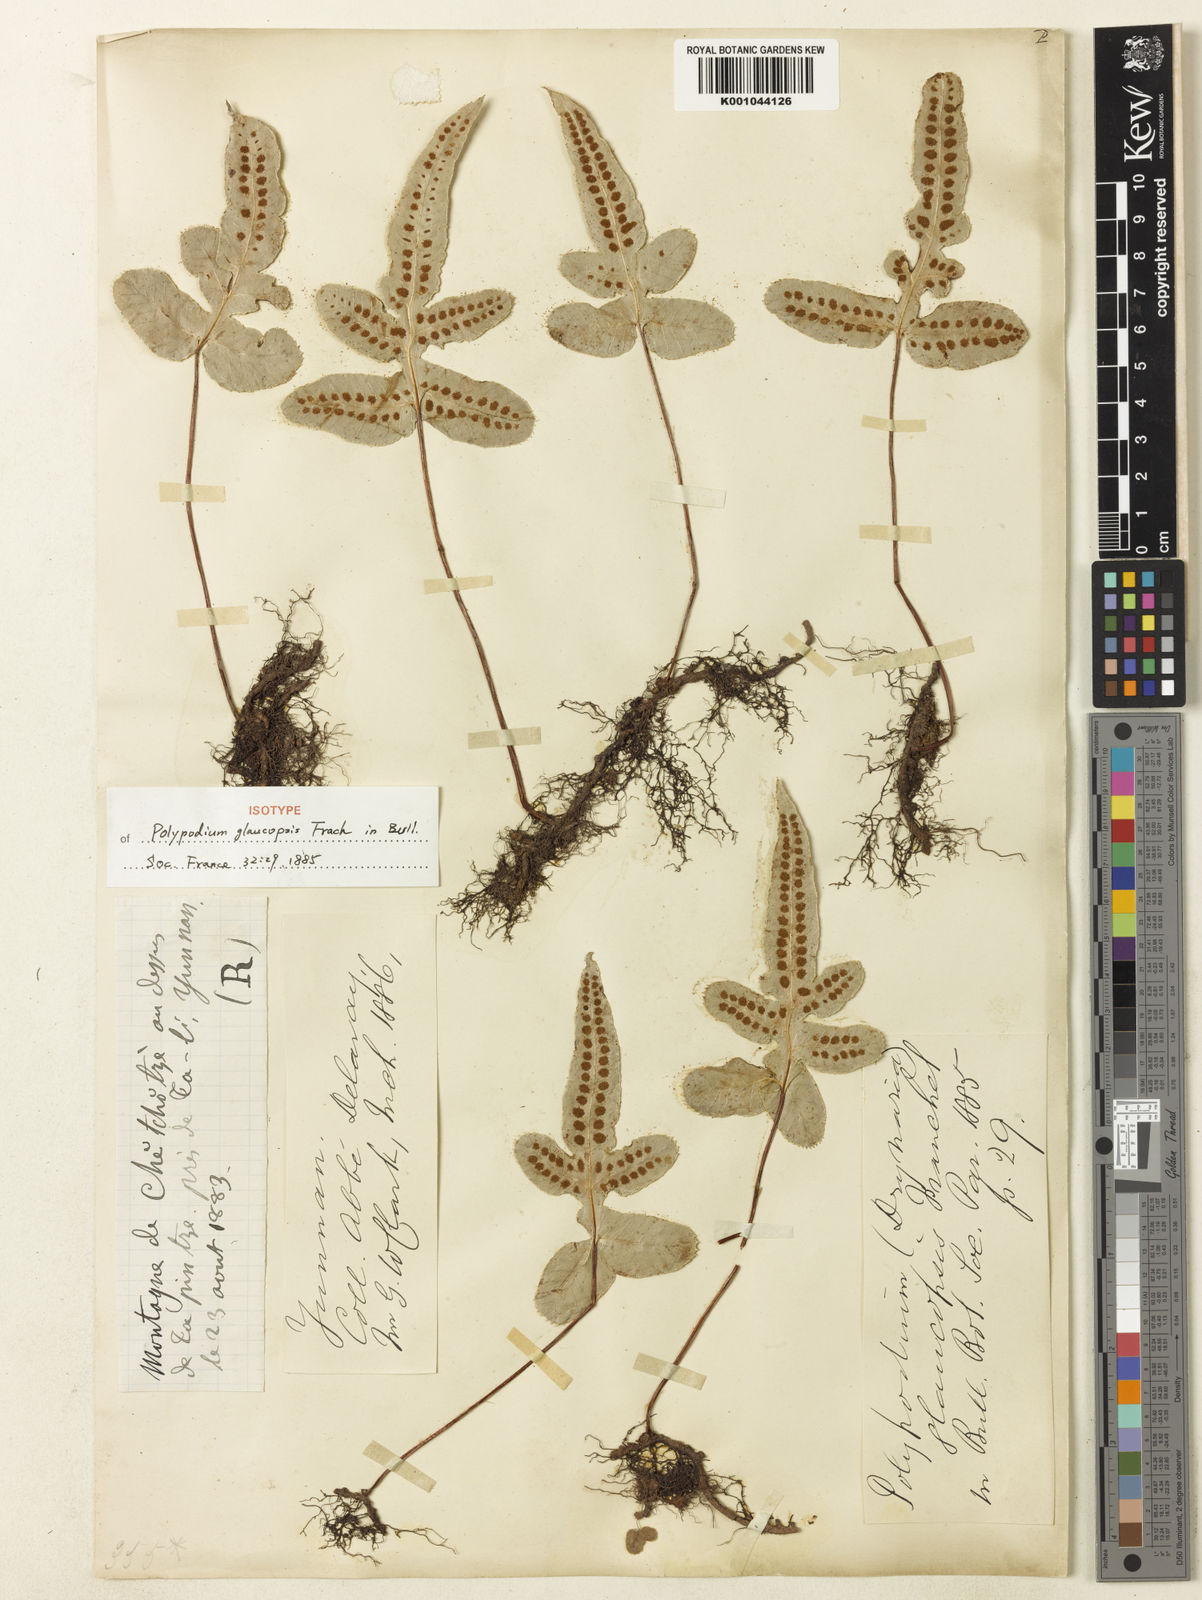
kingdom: Plantae
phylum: Tracheophyta
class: Polypodiopsida
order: Polypodiales
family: Polypodiaceae
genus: Selliguea
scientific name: Selliguea
